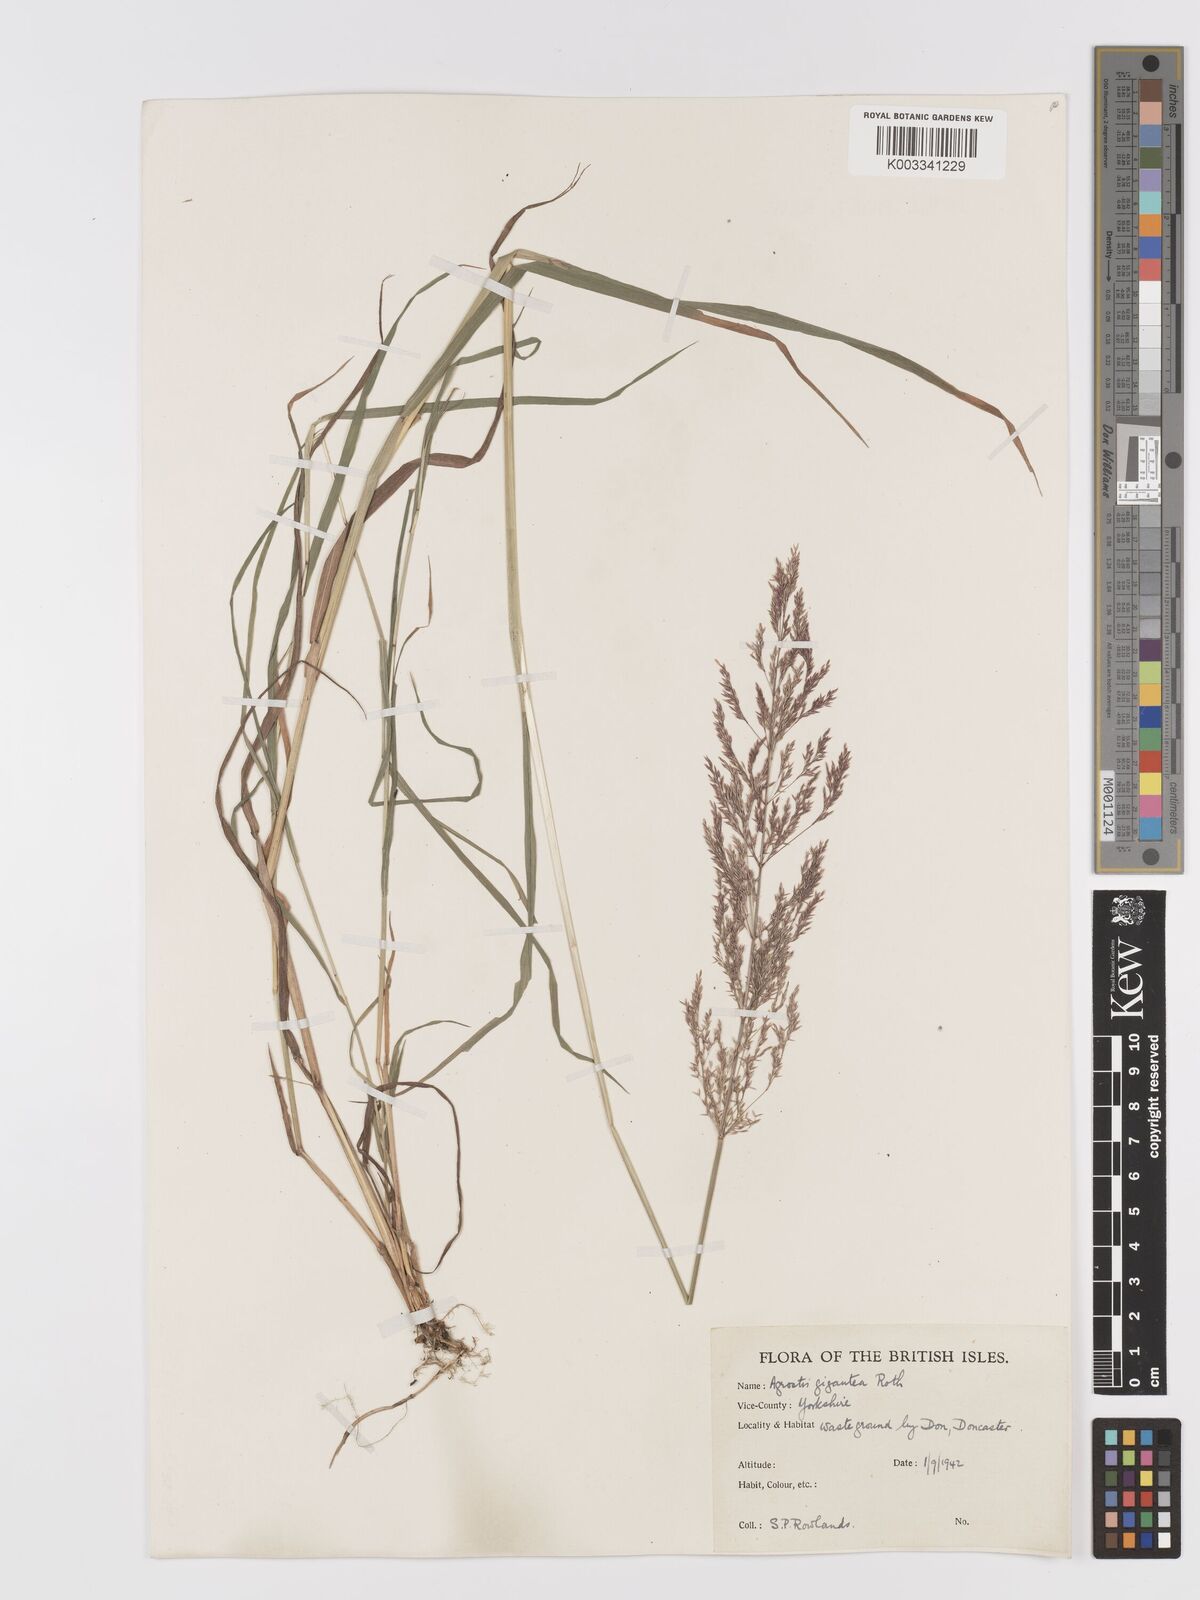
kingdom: Plantae
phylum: Tracheophyta
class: Liliopsida
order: Poales
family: Poaceae
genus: Agrostis
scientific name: Agrostis gigantea
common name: Black bent
